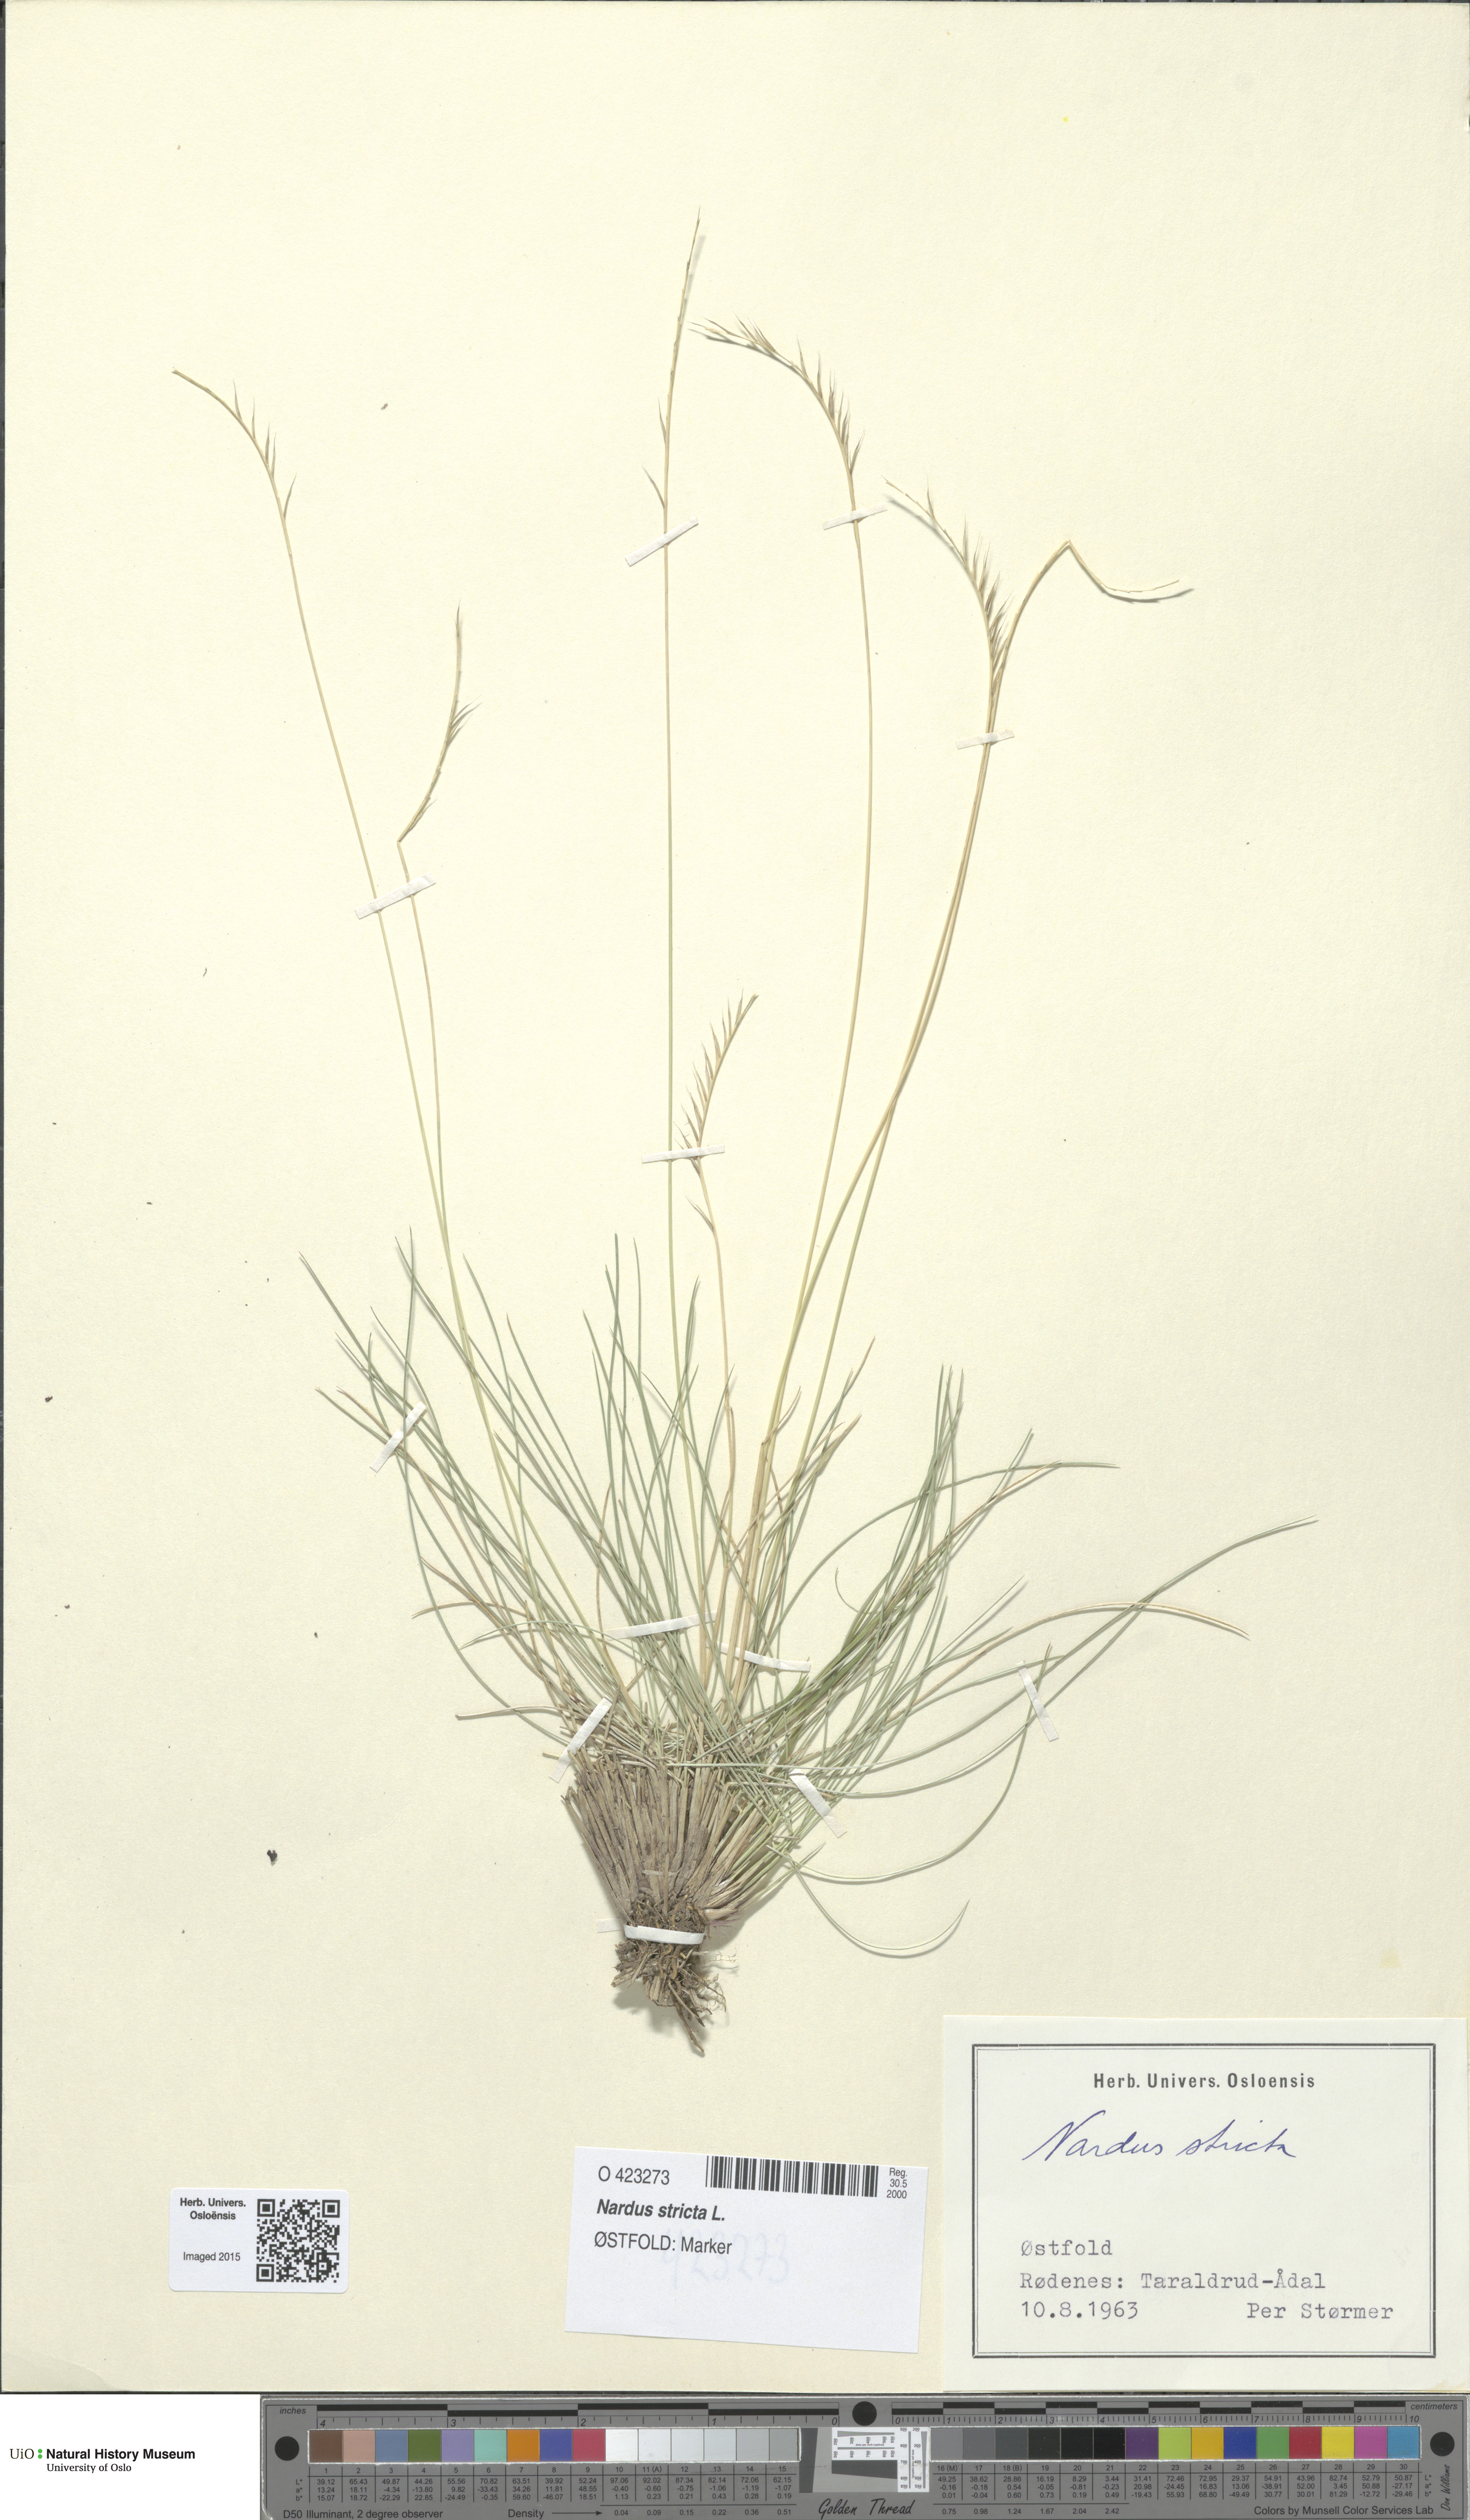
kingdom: Plantae
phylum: Tracheophyta
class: Liliopsida
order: Poales
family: Poaceae
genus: Nardus
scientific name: Nardus stricta
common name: Mat-grass
